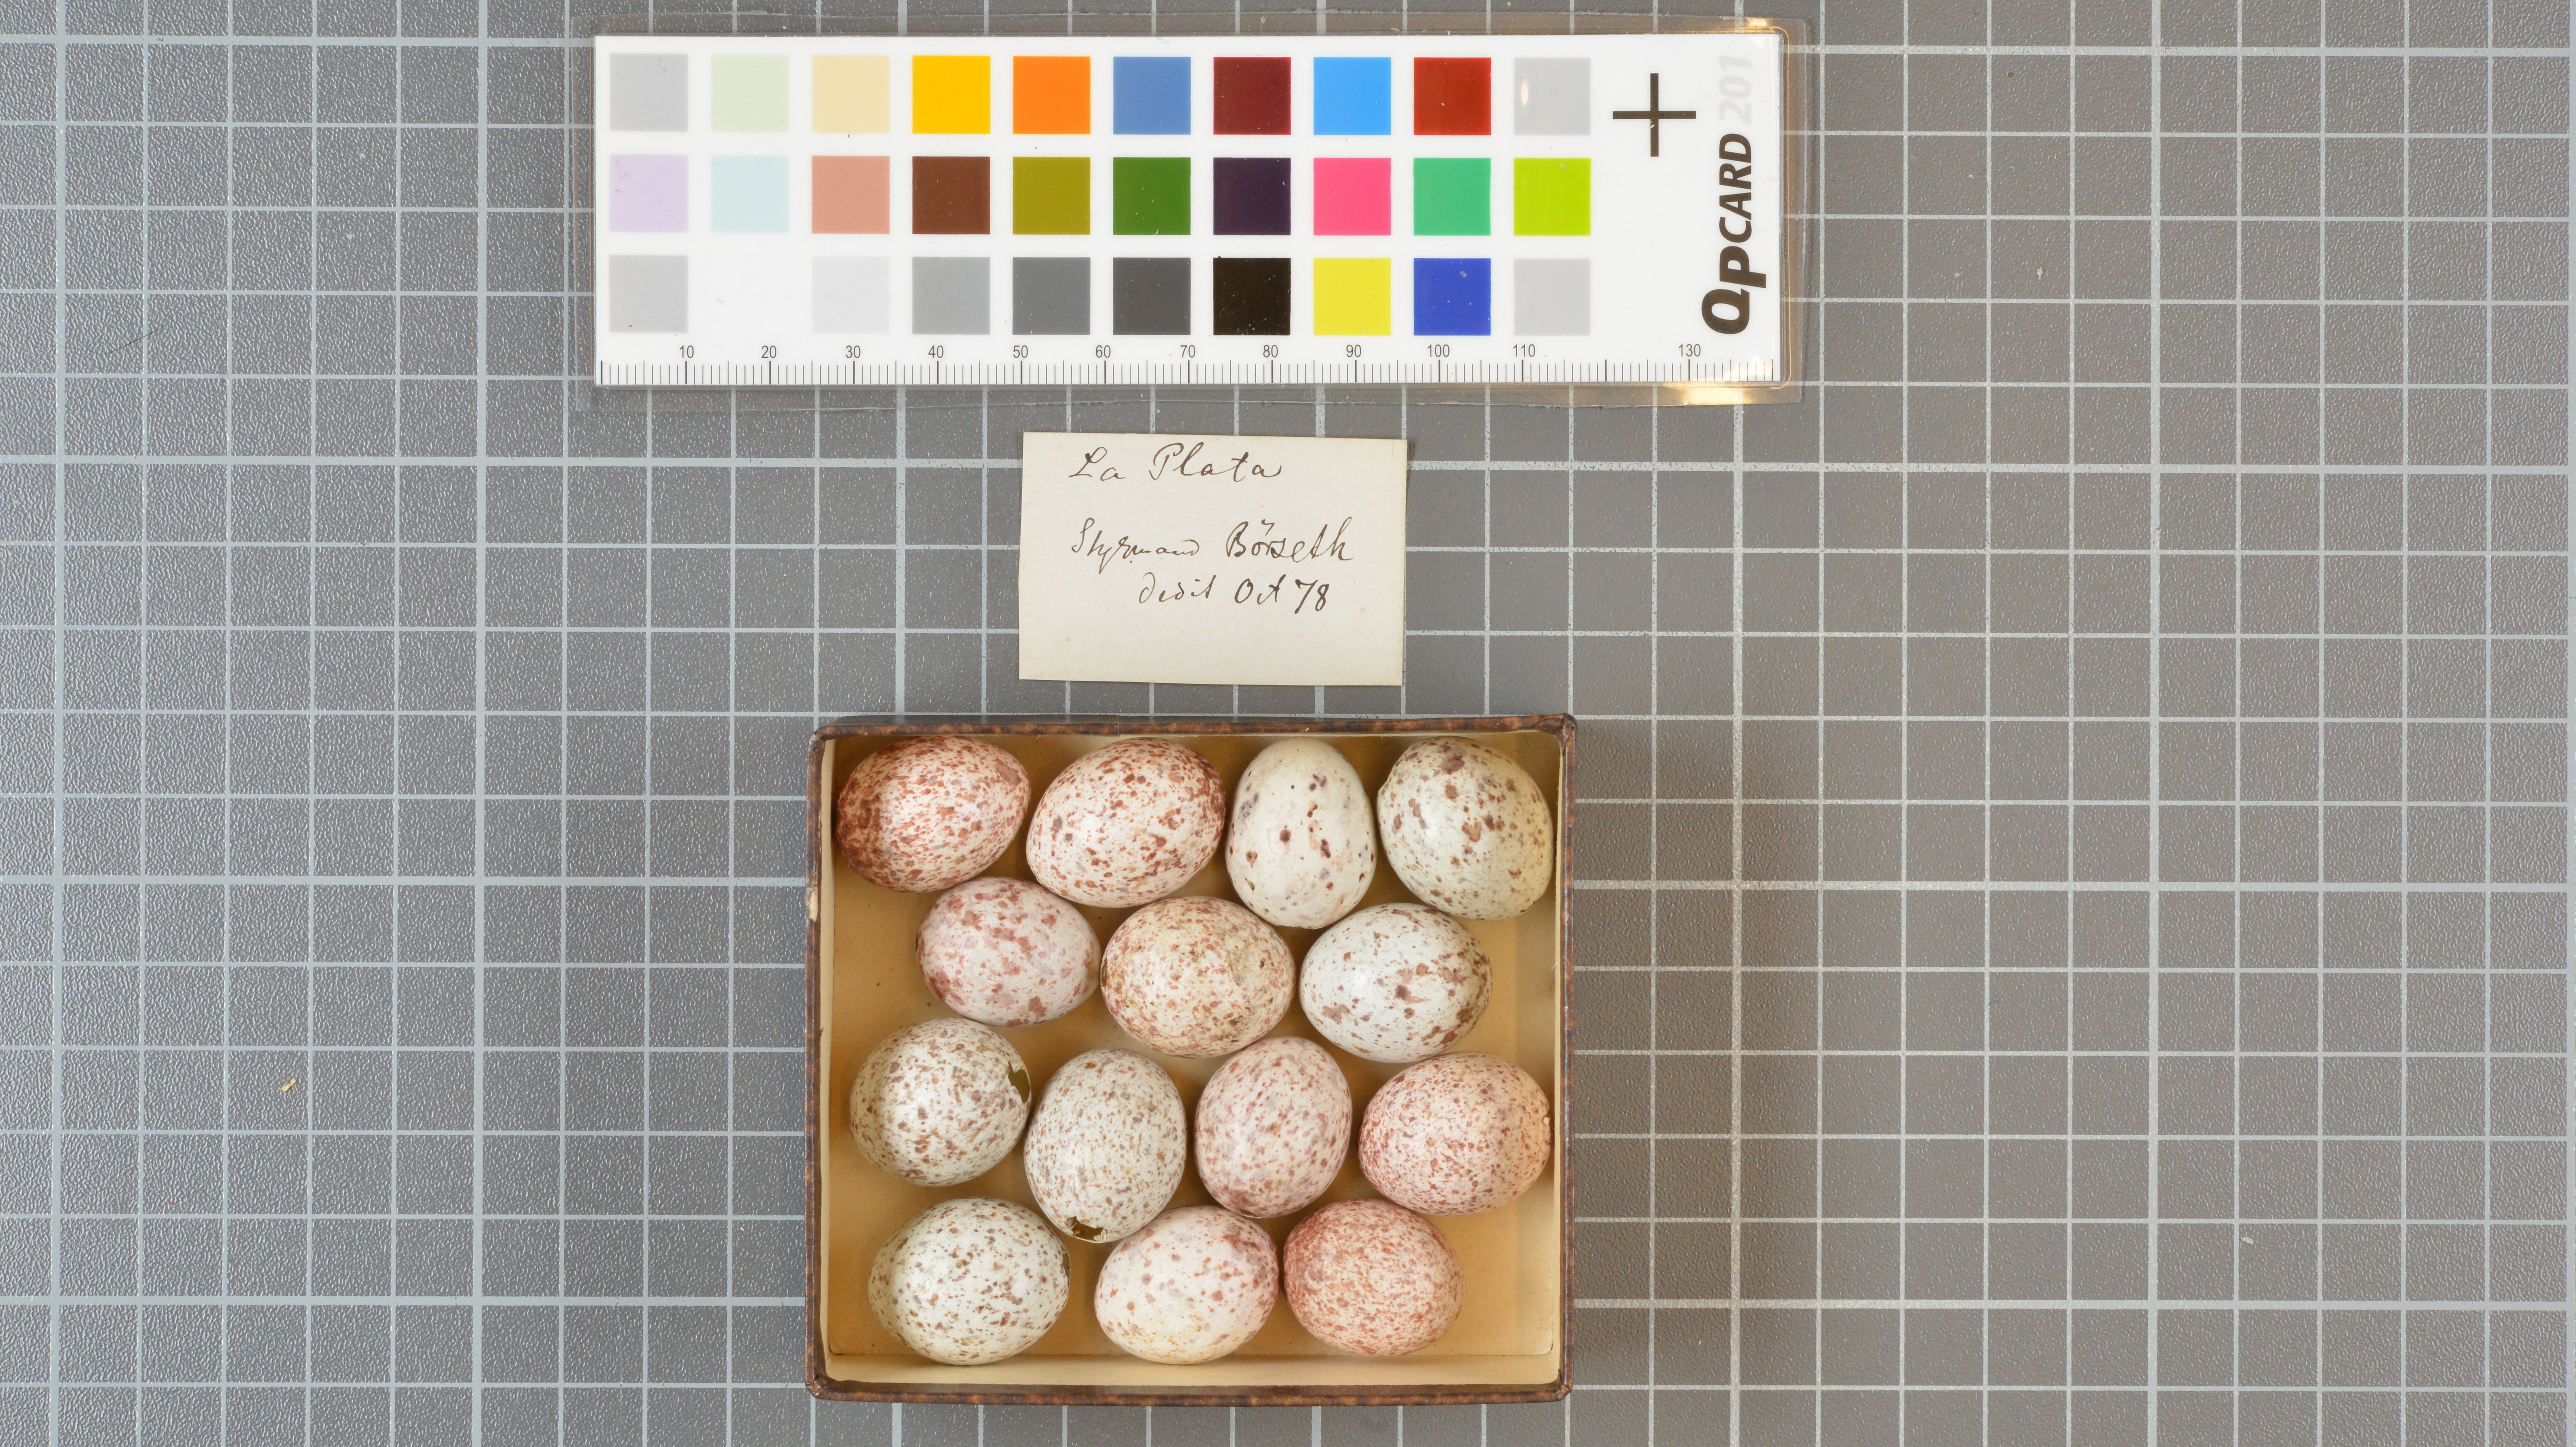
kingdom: Animalia
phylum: Chordata
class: Aves
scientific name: Aves
